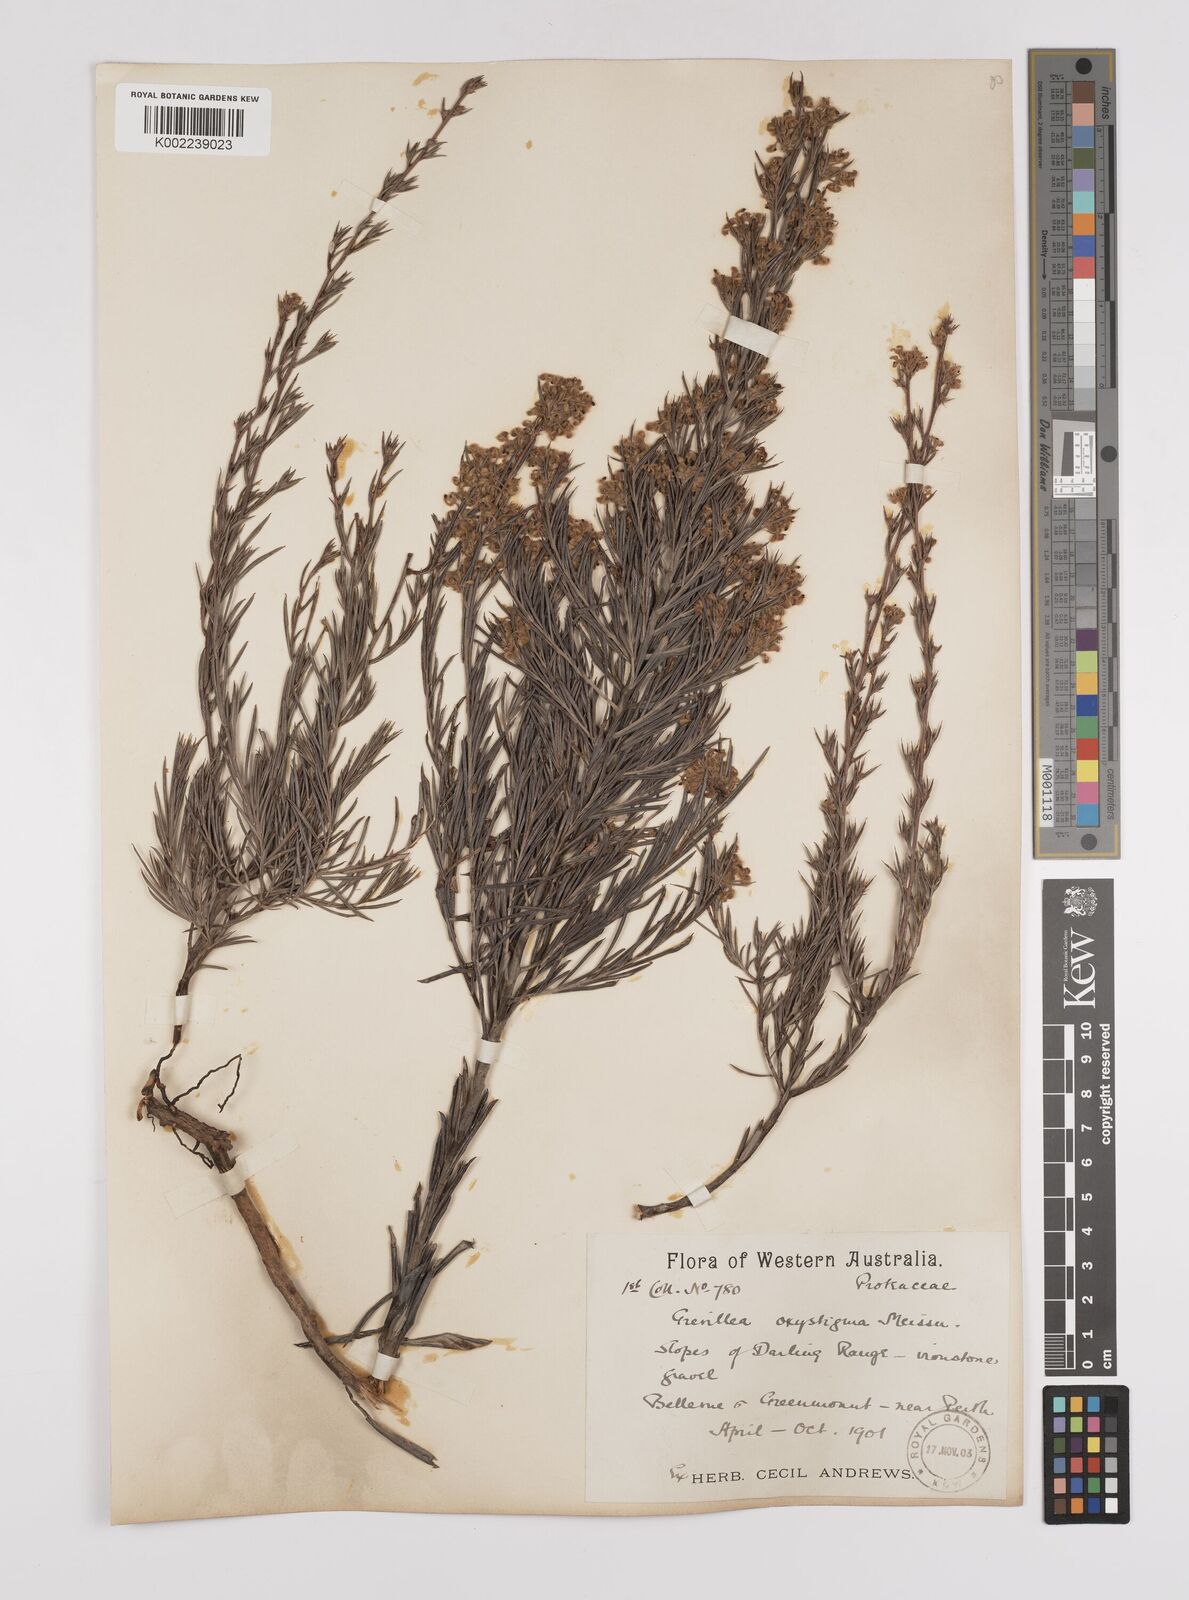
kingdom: Plantae
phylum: Tracheophyta
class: Magnoliopsida
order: Proteales
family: Proteaceae
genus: Grevillea
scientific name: Grevillea pilulifera
